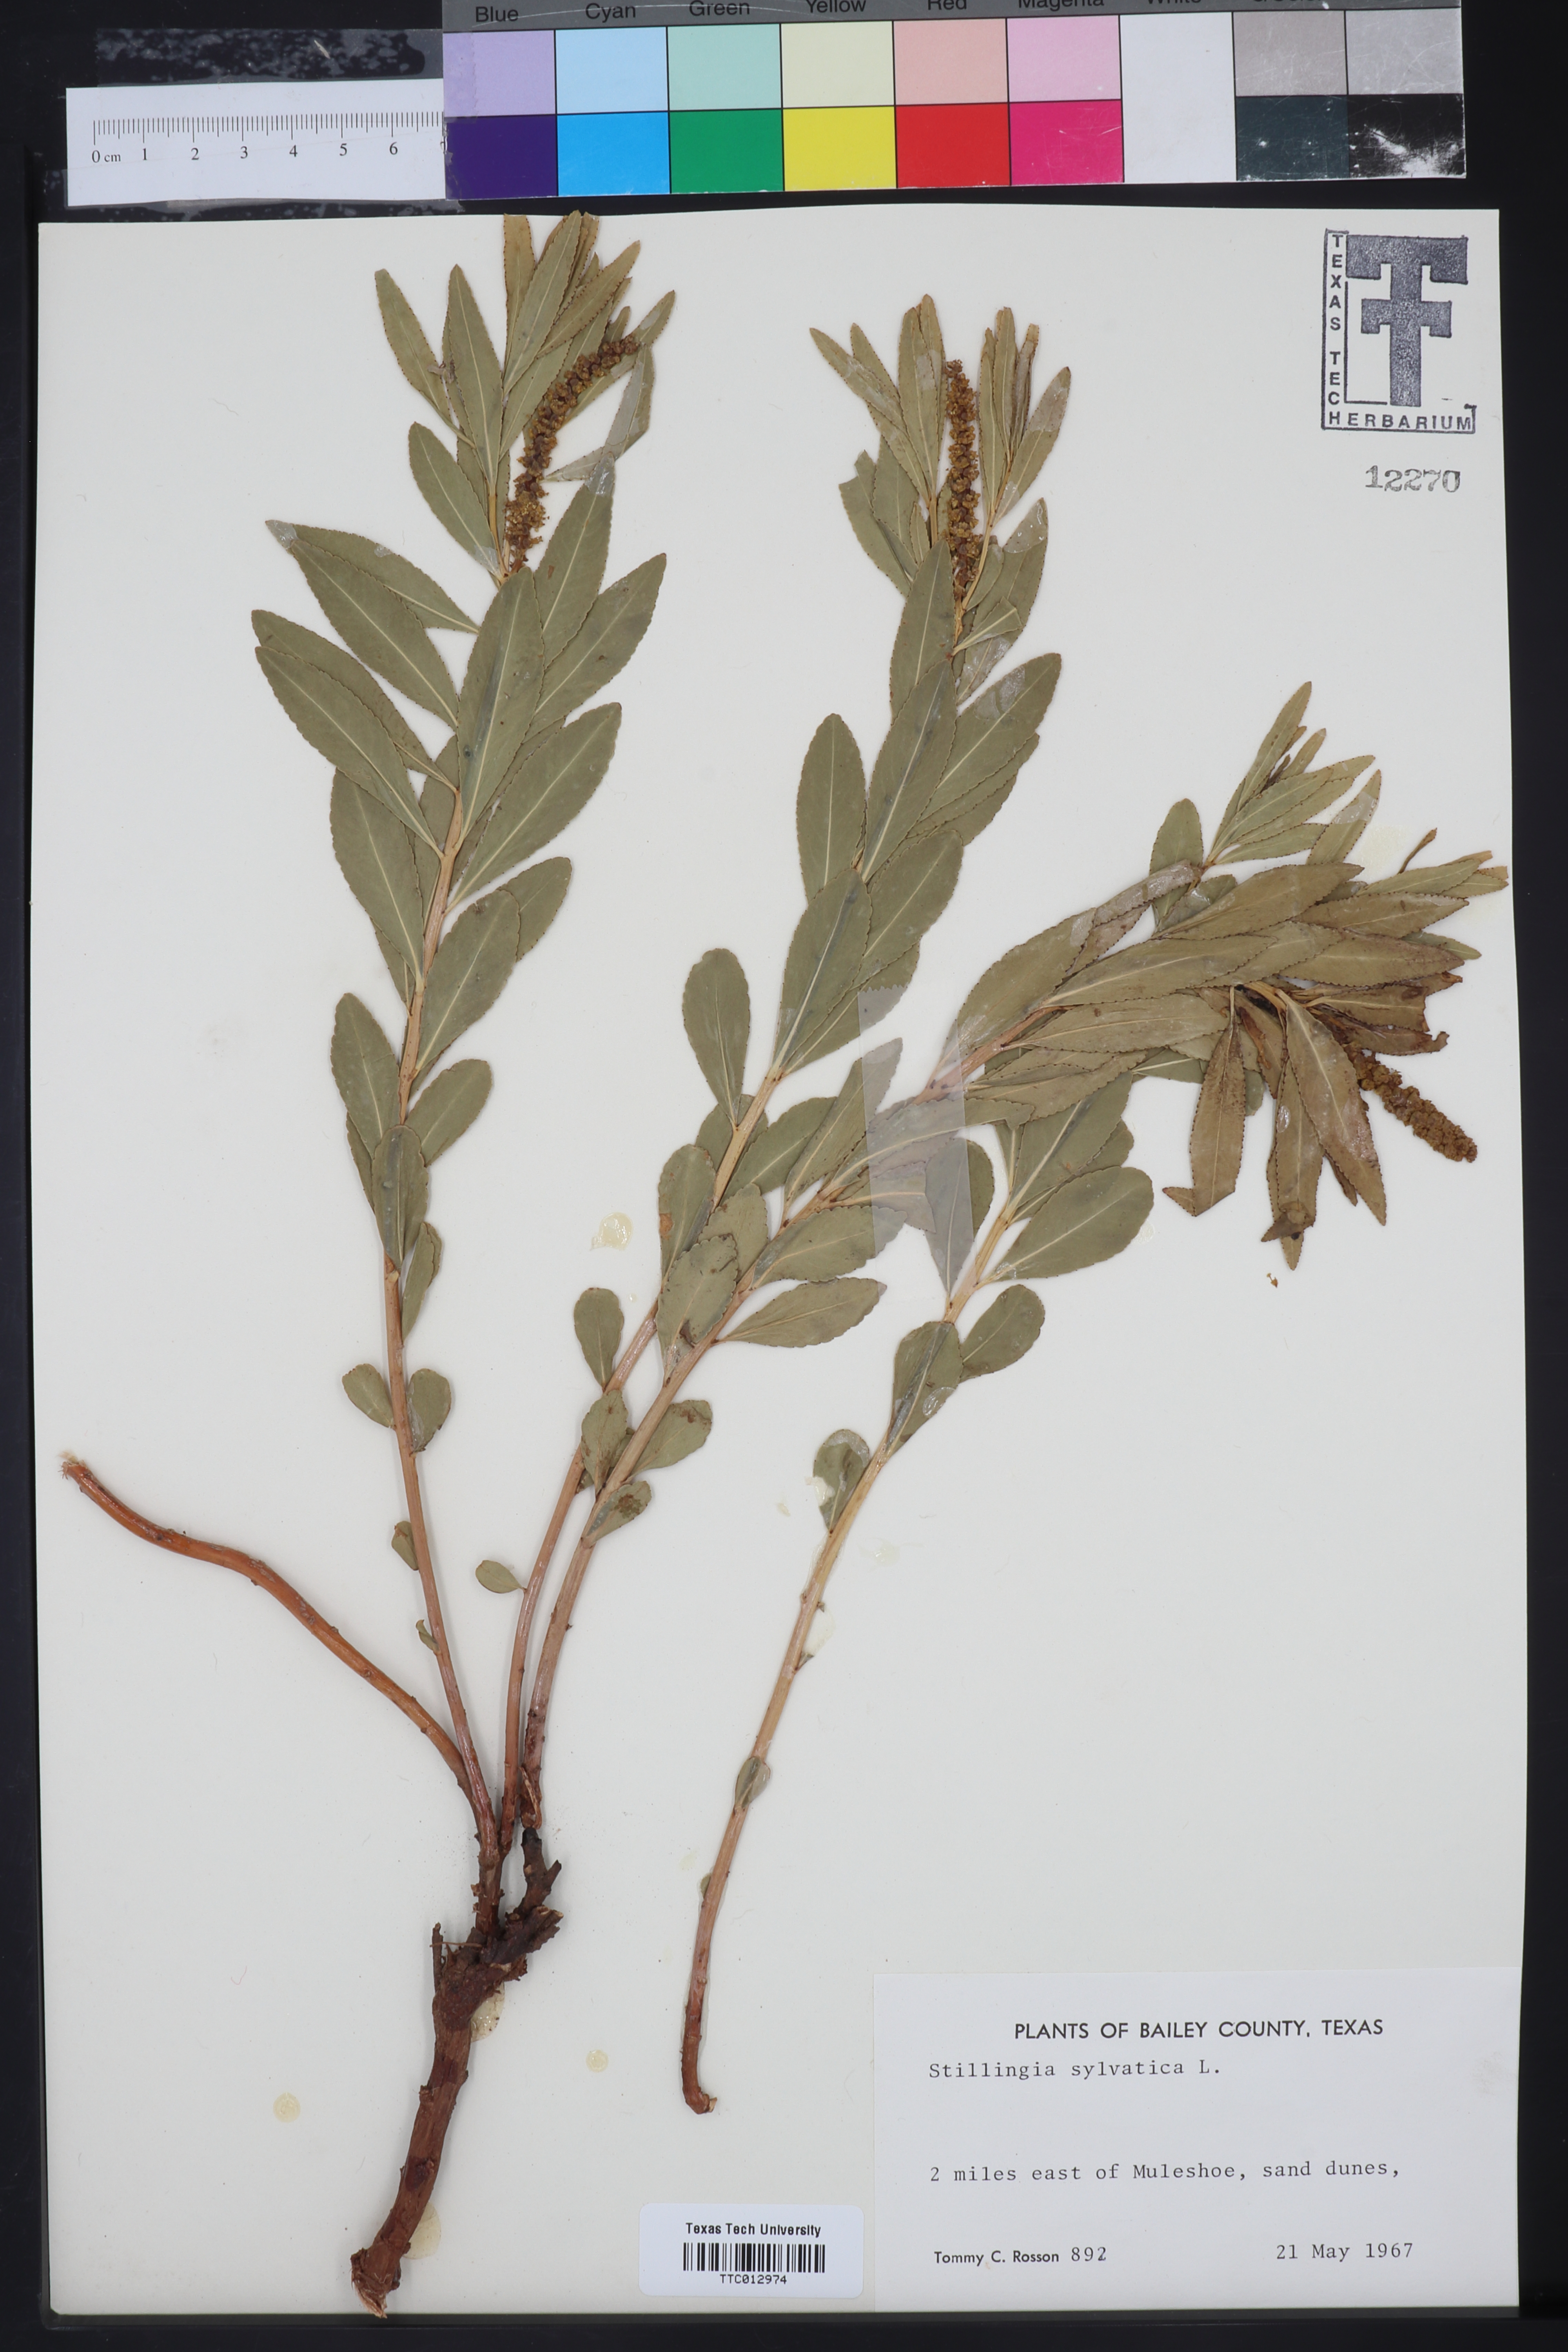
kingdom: Plantae
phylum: Tracheophyta
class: Magnoliopsida
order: Malpighiales
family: Euphorbiaceae
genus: Stillingia
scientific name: Stillingia sylvatica
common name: Queen's-delight
